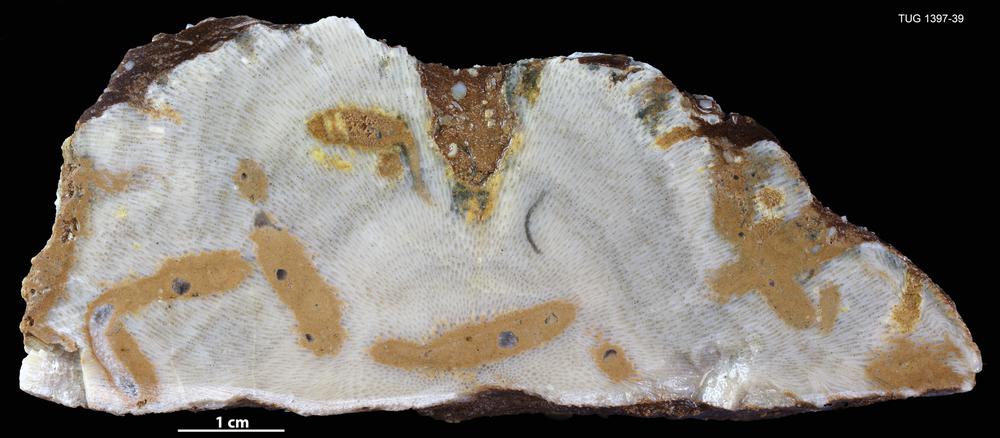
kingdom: Animalia
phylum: Bryozoa
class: Stenolaemata
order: Trepostomatida
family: Diplotrypidae
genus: Diplotrypa
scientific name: Diplotrypa petropolitana
